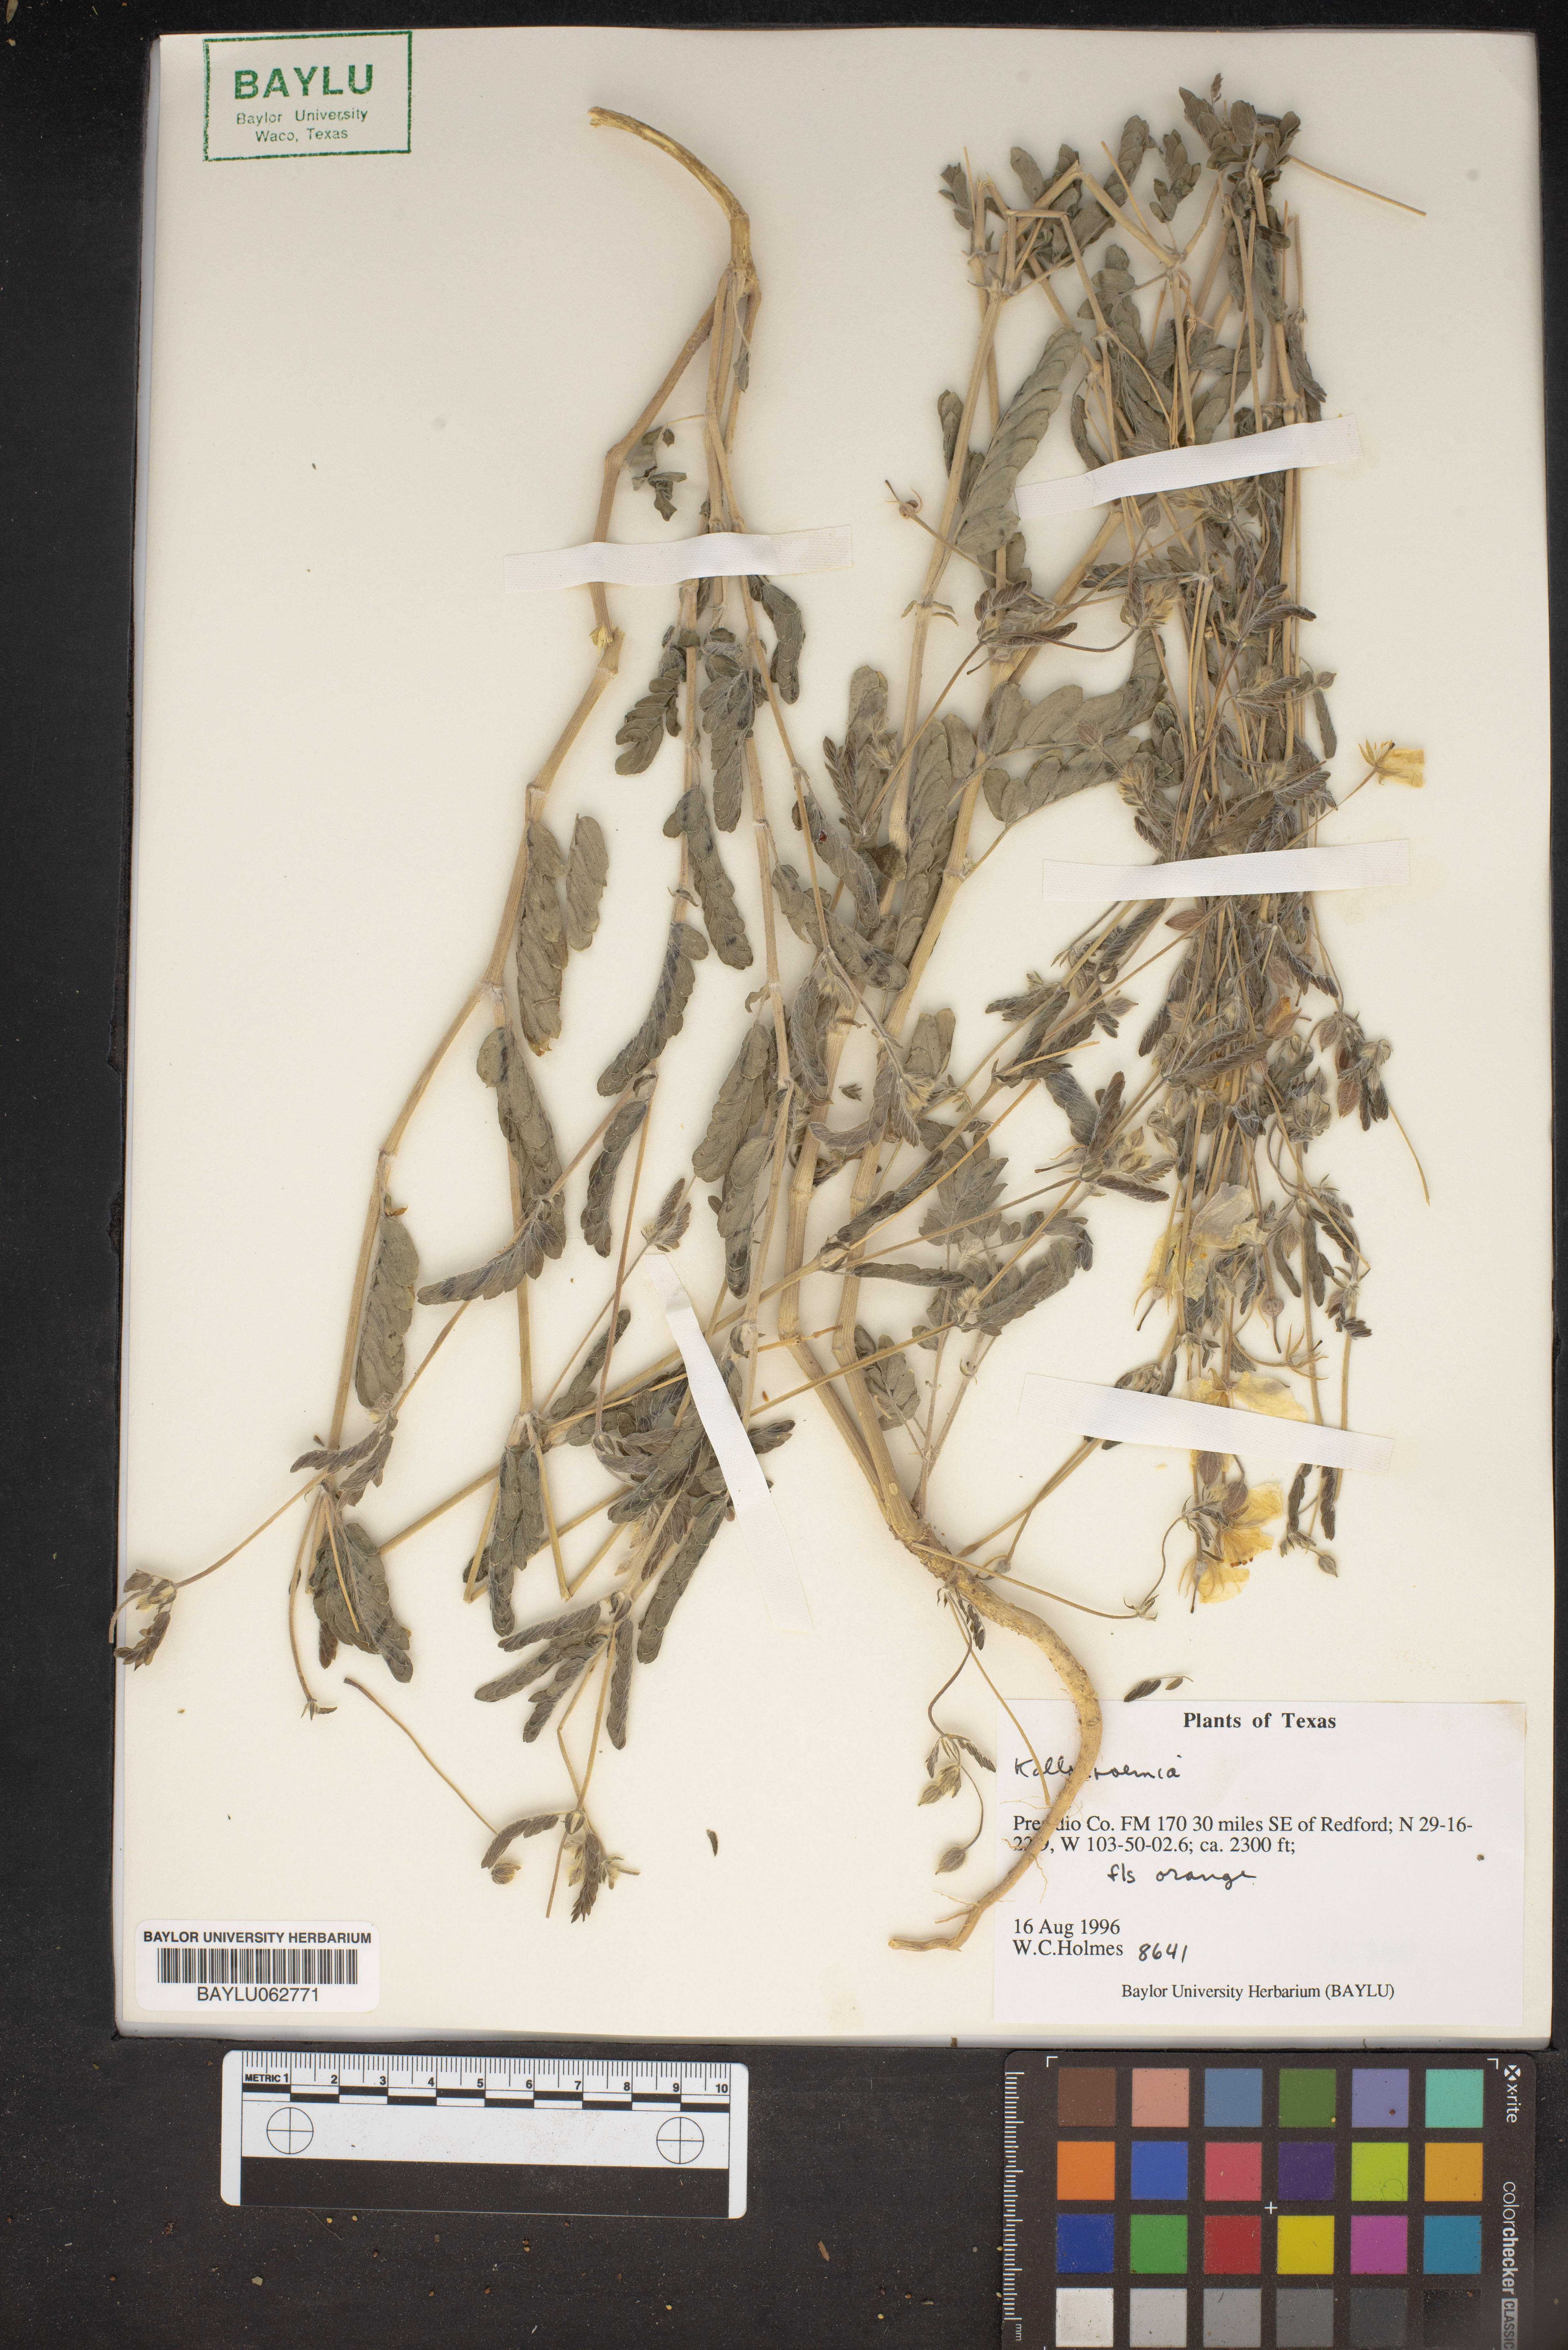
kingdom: Plantae
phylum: Tracheophyta
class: Magnoliopsida
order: Zygophyllales
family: Zygophyllaceae
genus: Kallstroemia
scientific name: Kallstroemia
